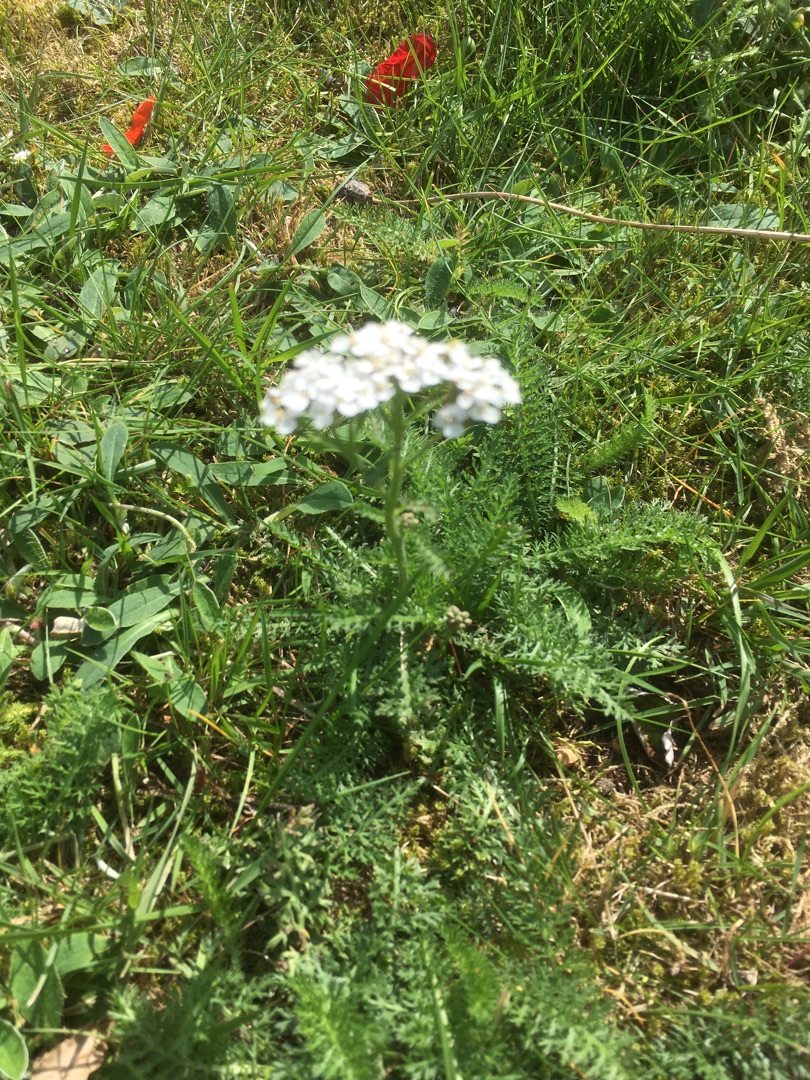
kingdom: Plantae
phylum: Tracheophyta
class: Magnoliopsida
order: Asterales
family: Asteraceae
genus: Achillea
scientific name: Achillea millefolium
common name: Almindelig røllike
